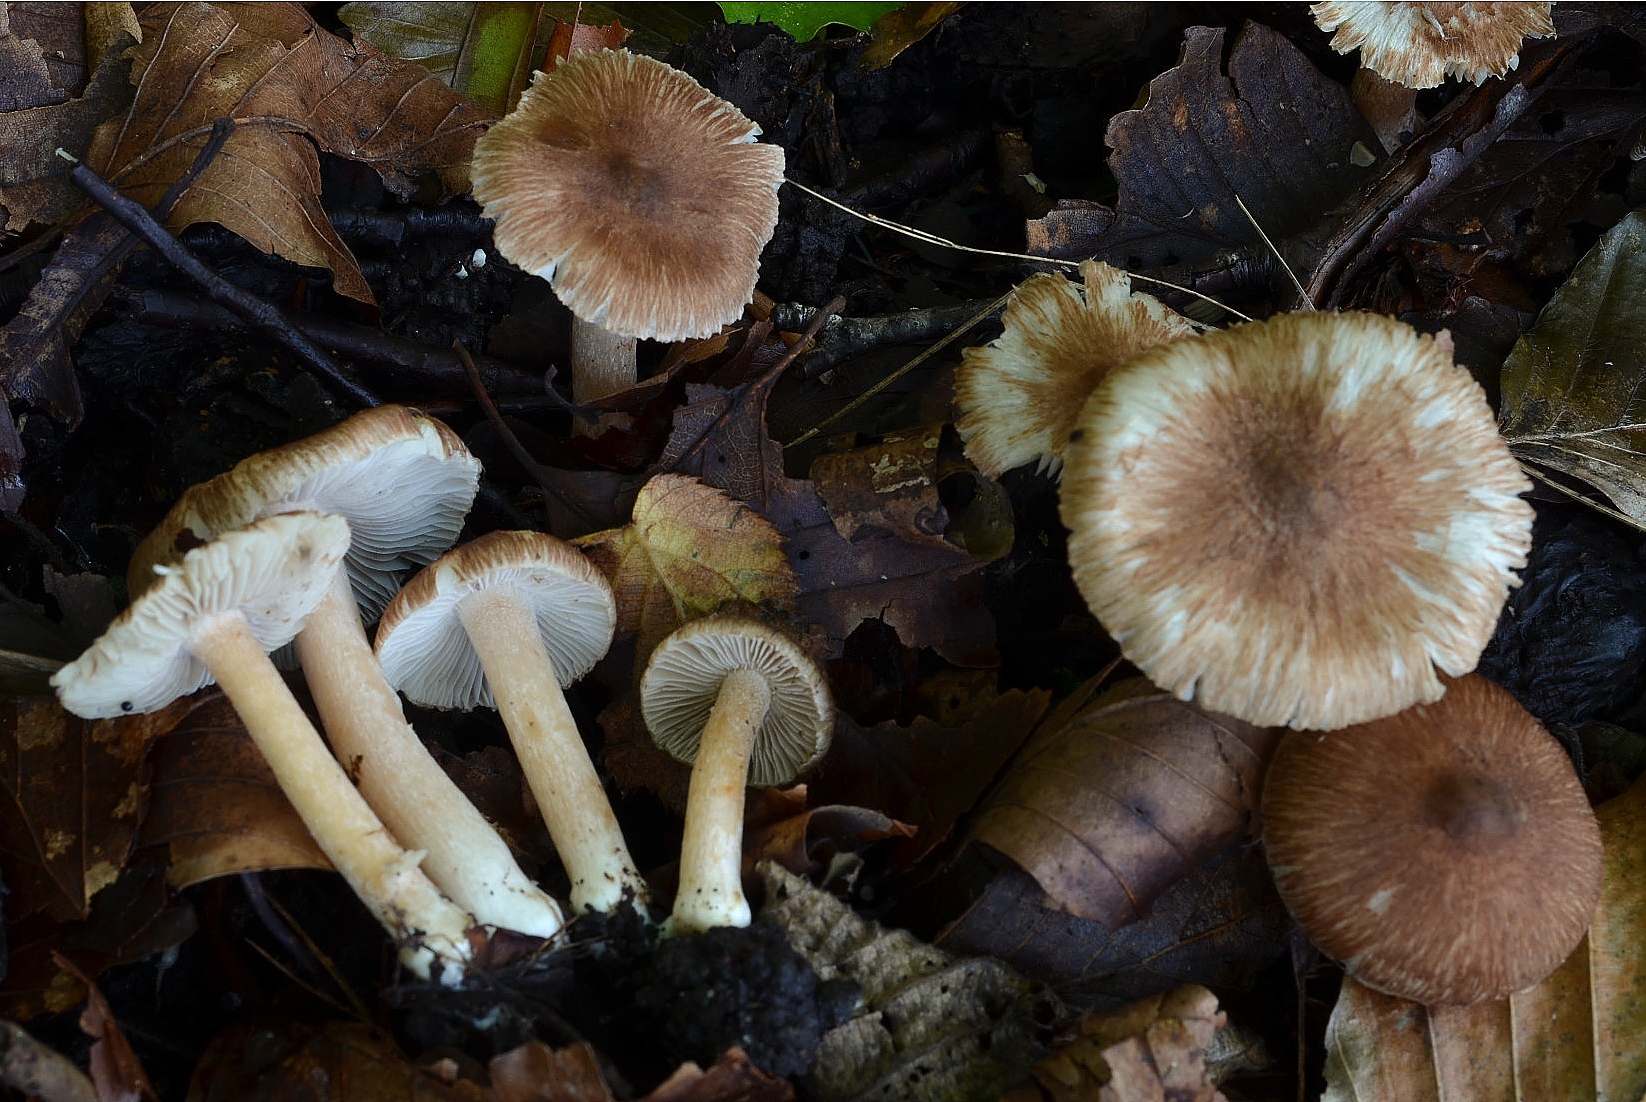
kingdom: Fungi
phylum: Basidiomycota
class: Agaricomycetes
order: Agaricales
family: Inocybaceae
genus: Inocybe
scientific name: Inocybe griseovelata
